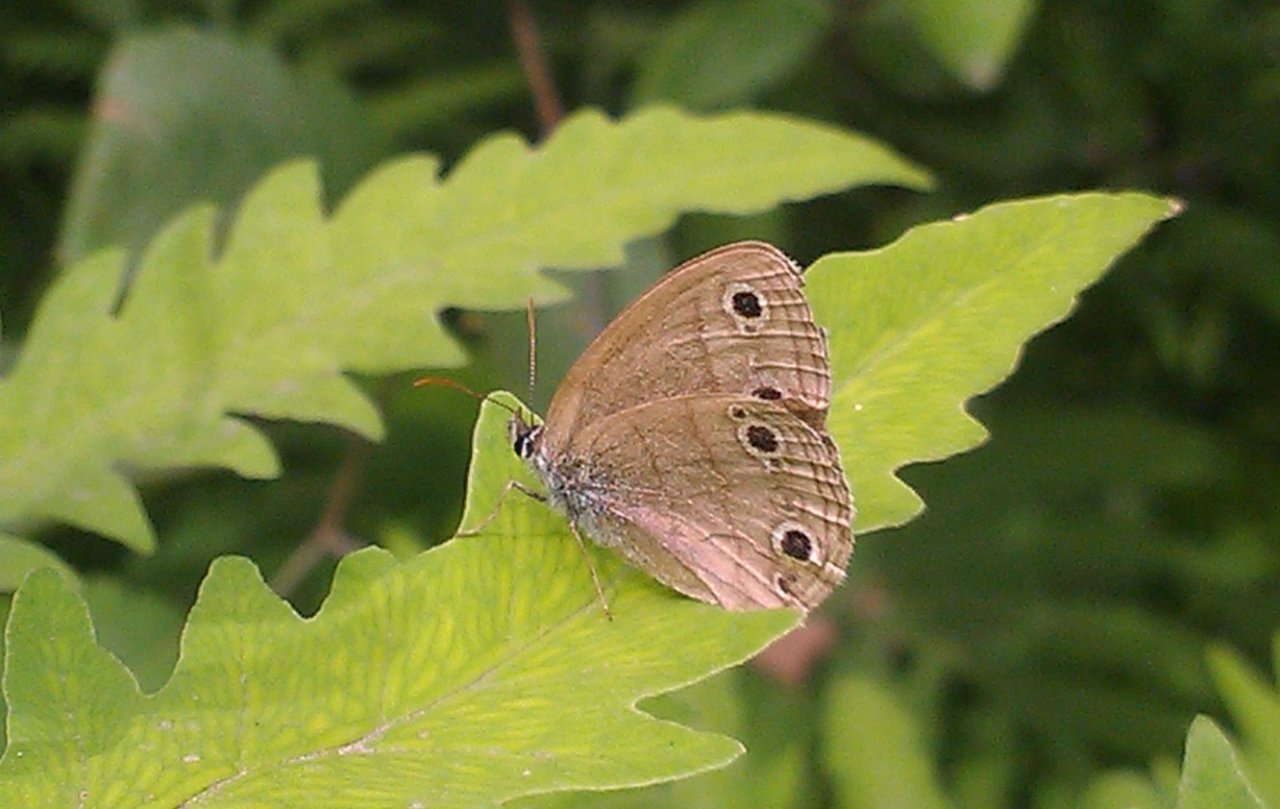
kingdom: Animalia
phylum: Arthropoda
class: Insecta
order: Lepidoptera
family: Nymphalidae
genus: Euptychia
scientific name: Euptychia cymela
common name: Little Wood Satyr
